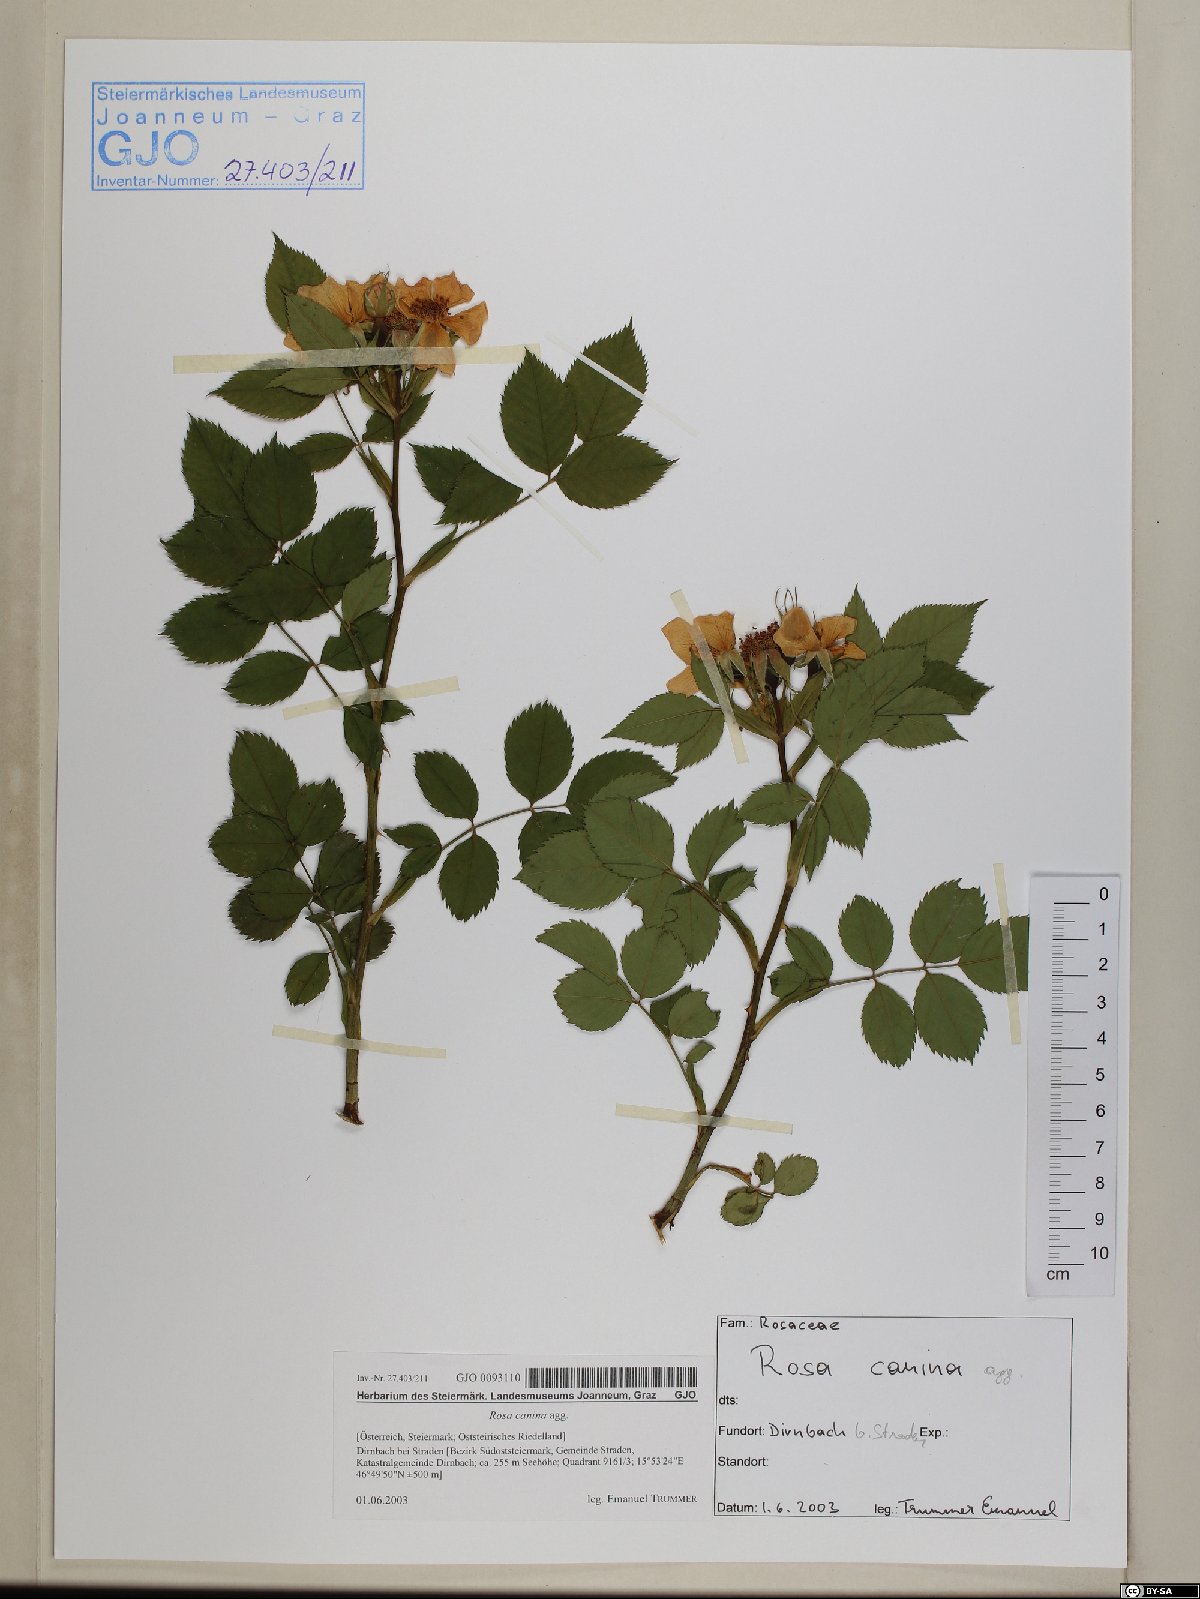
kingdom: Plantae
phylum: Tracheophyta
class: Magnoliopsida
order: Rosales
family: Rosaceae
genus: Rosa
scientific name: Rosa canina
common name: Dog rose
